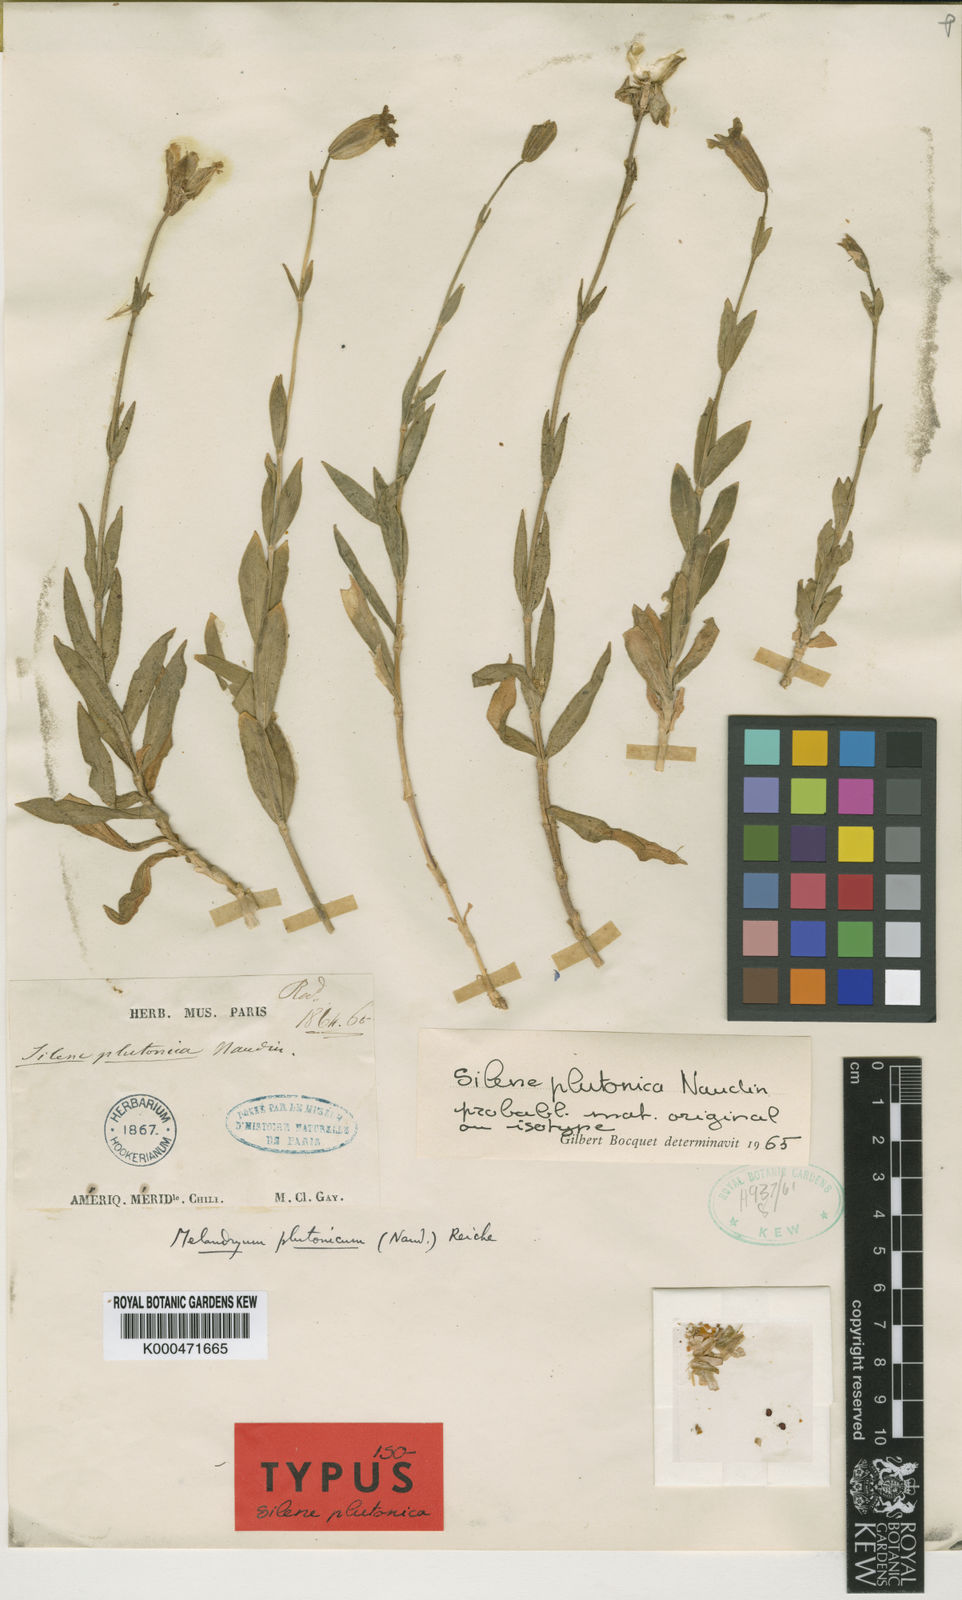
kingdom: Plantae
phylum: Tracheophyta
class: Magnoliopsida
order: Caryophyllales
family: Caryophyllaceae
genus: Silene
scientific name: Silene
